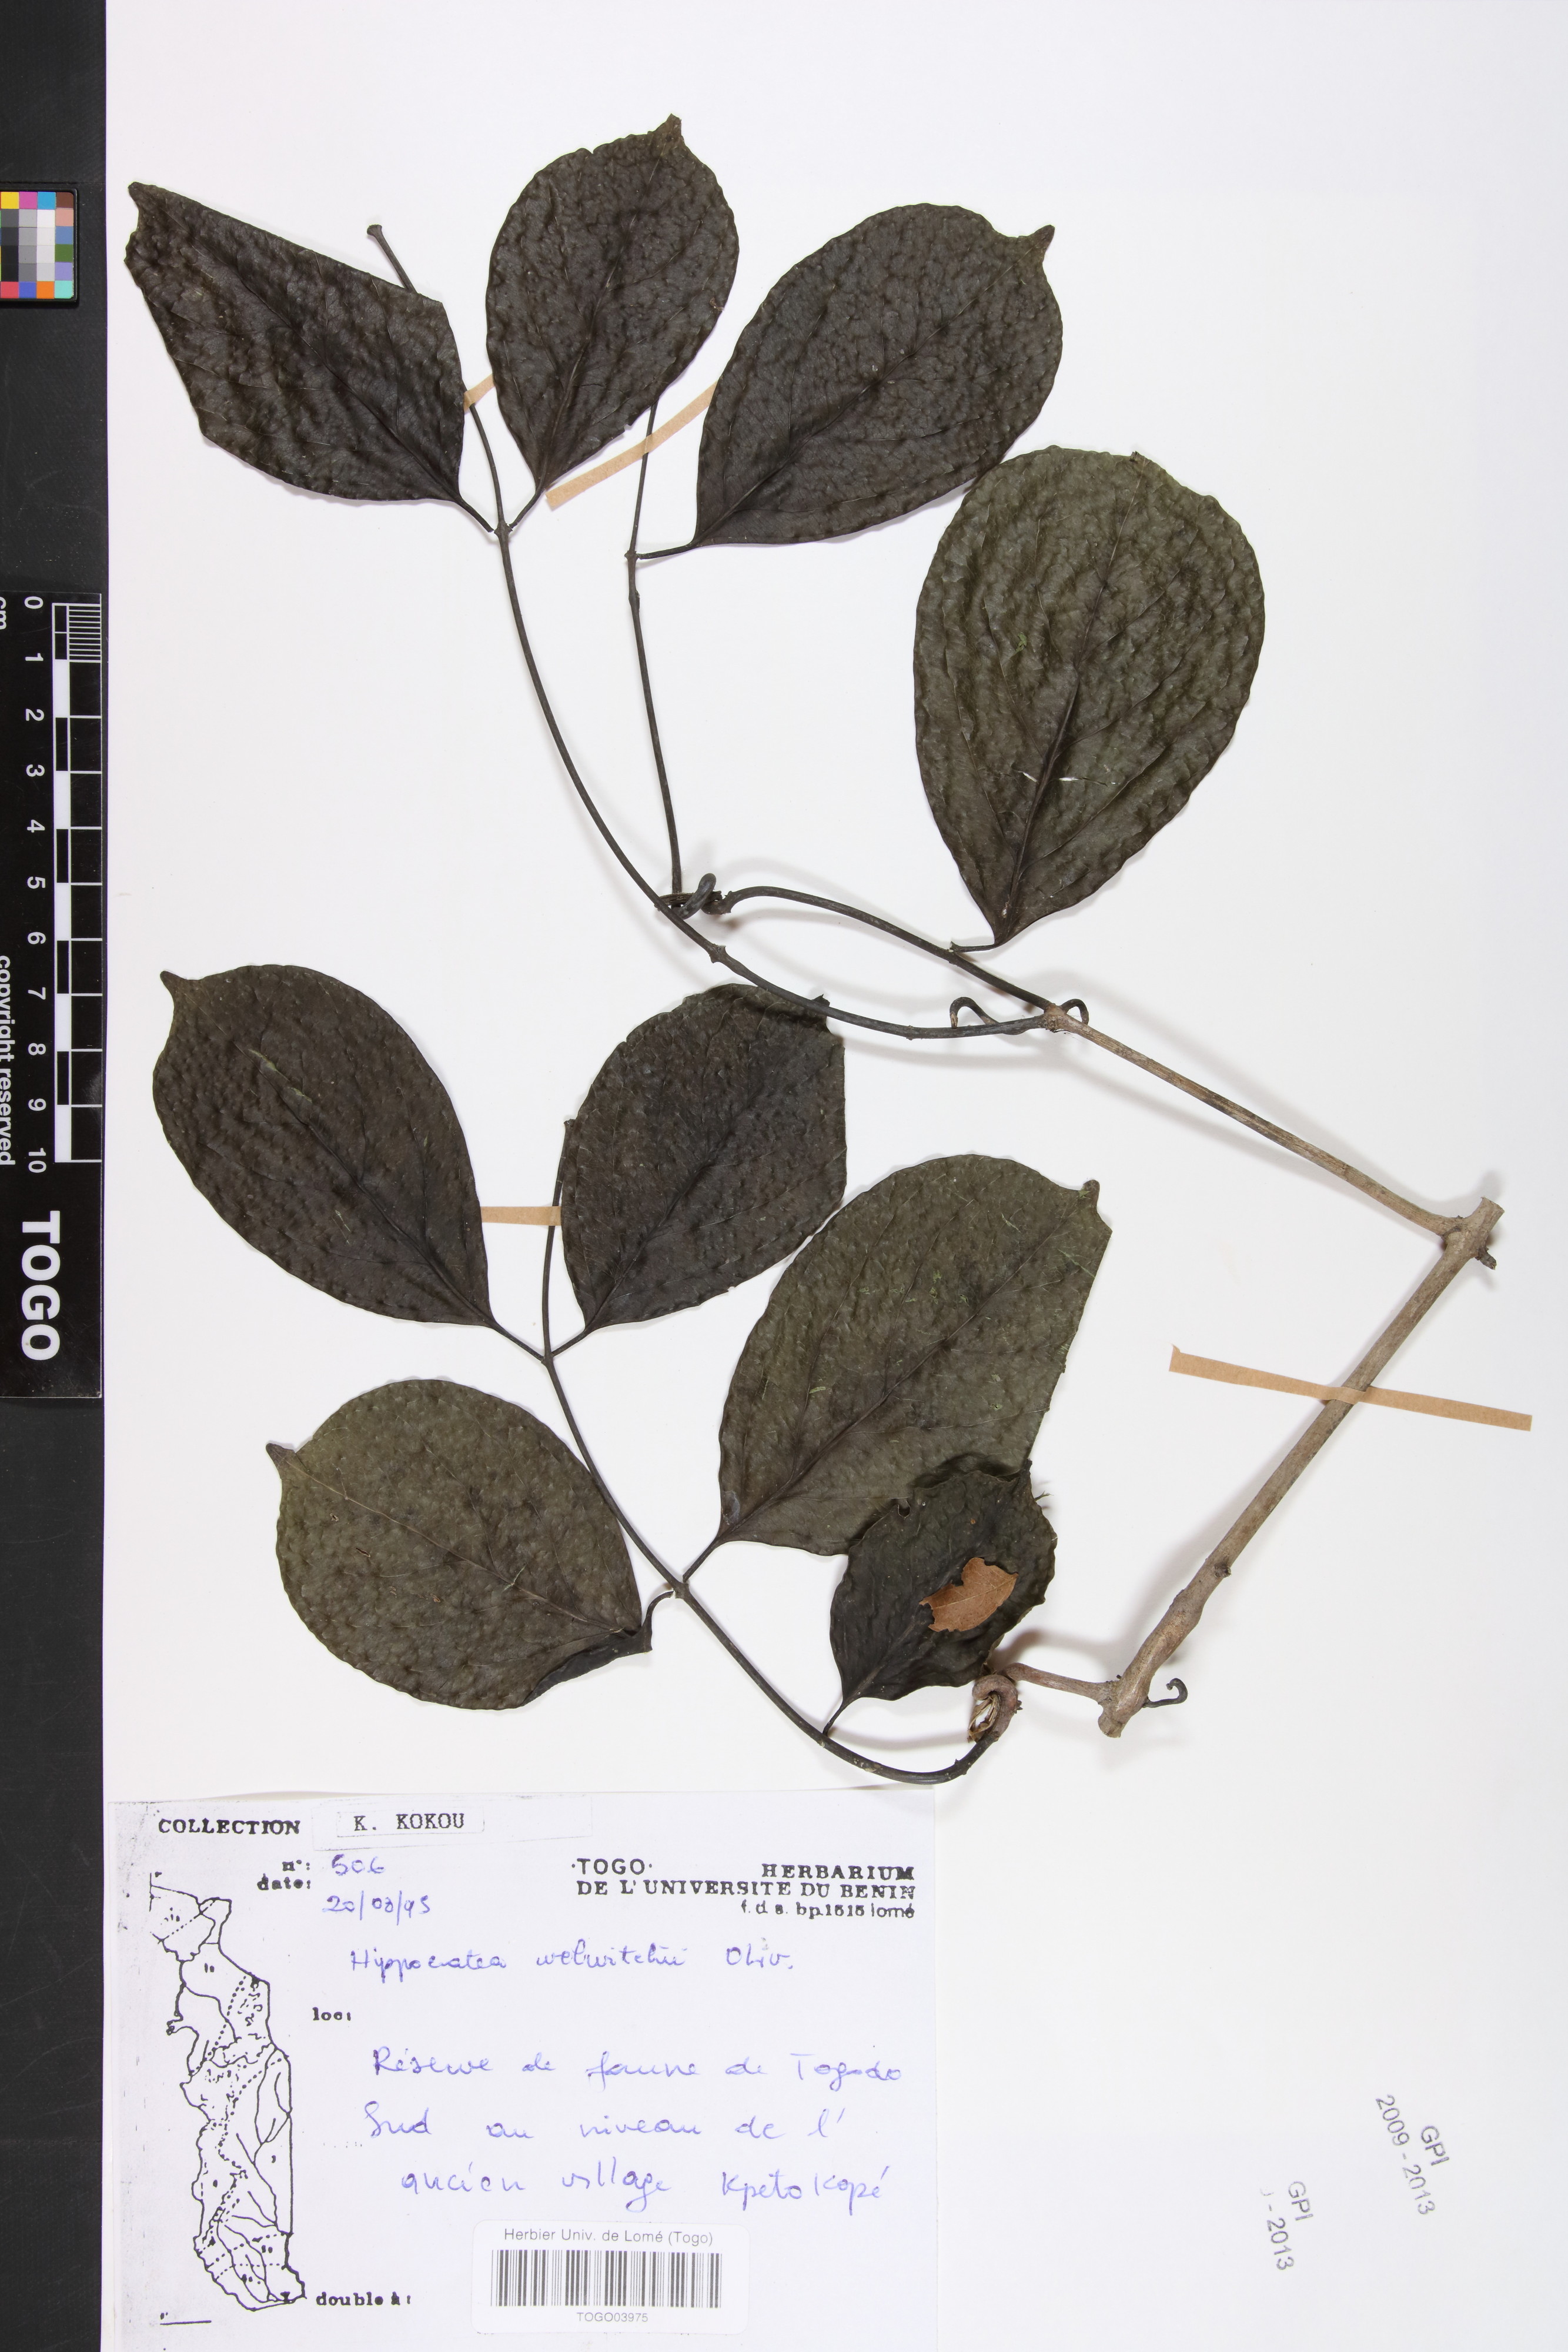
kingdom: Plantae
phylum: Tracheophyta
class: Magnoliopsida
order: Celastrales
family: Celastraceae
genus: Simicratea
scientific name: Simicratea welwitschii
